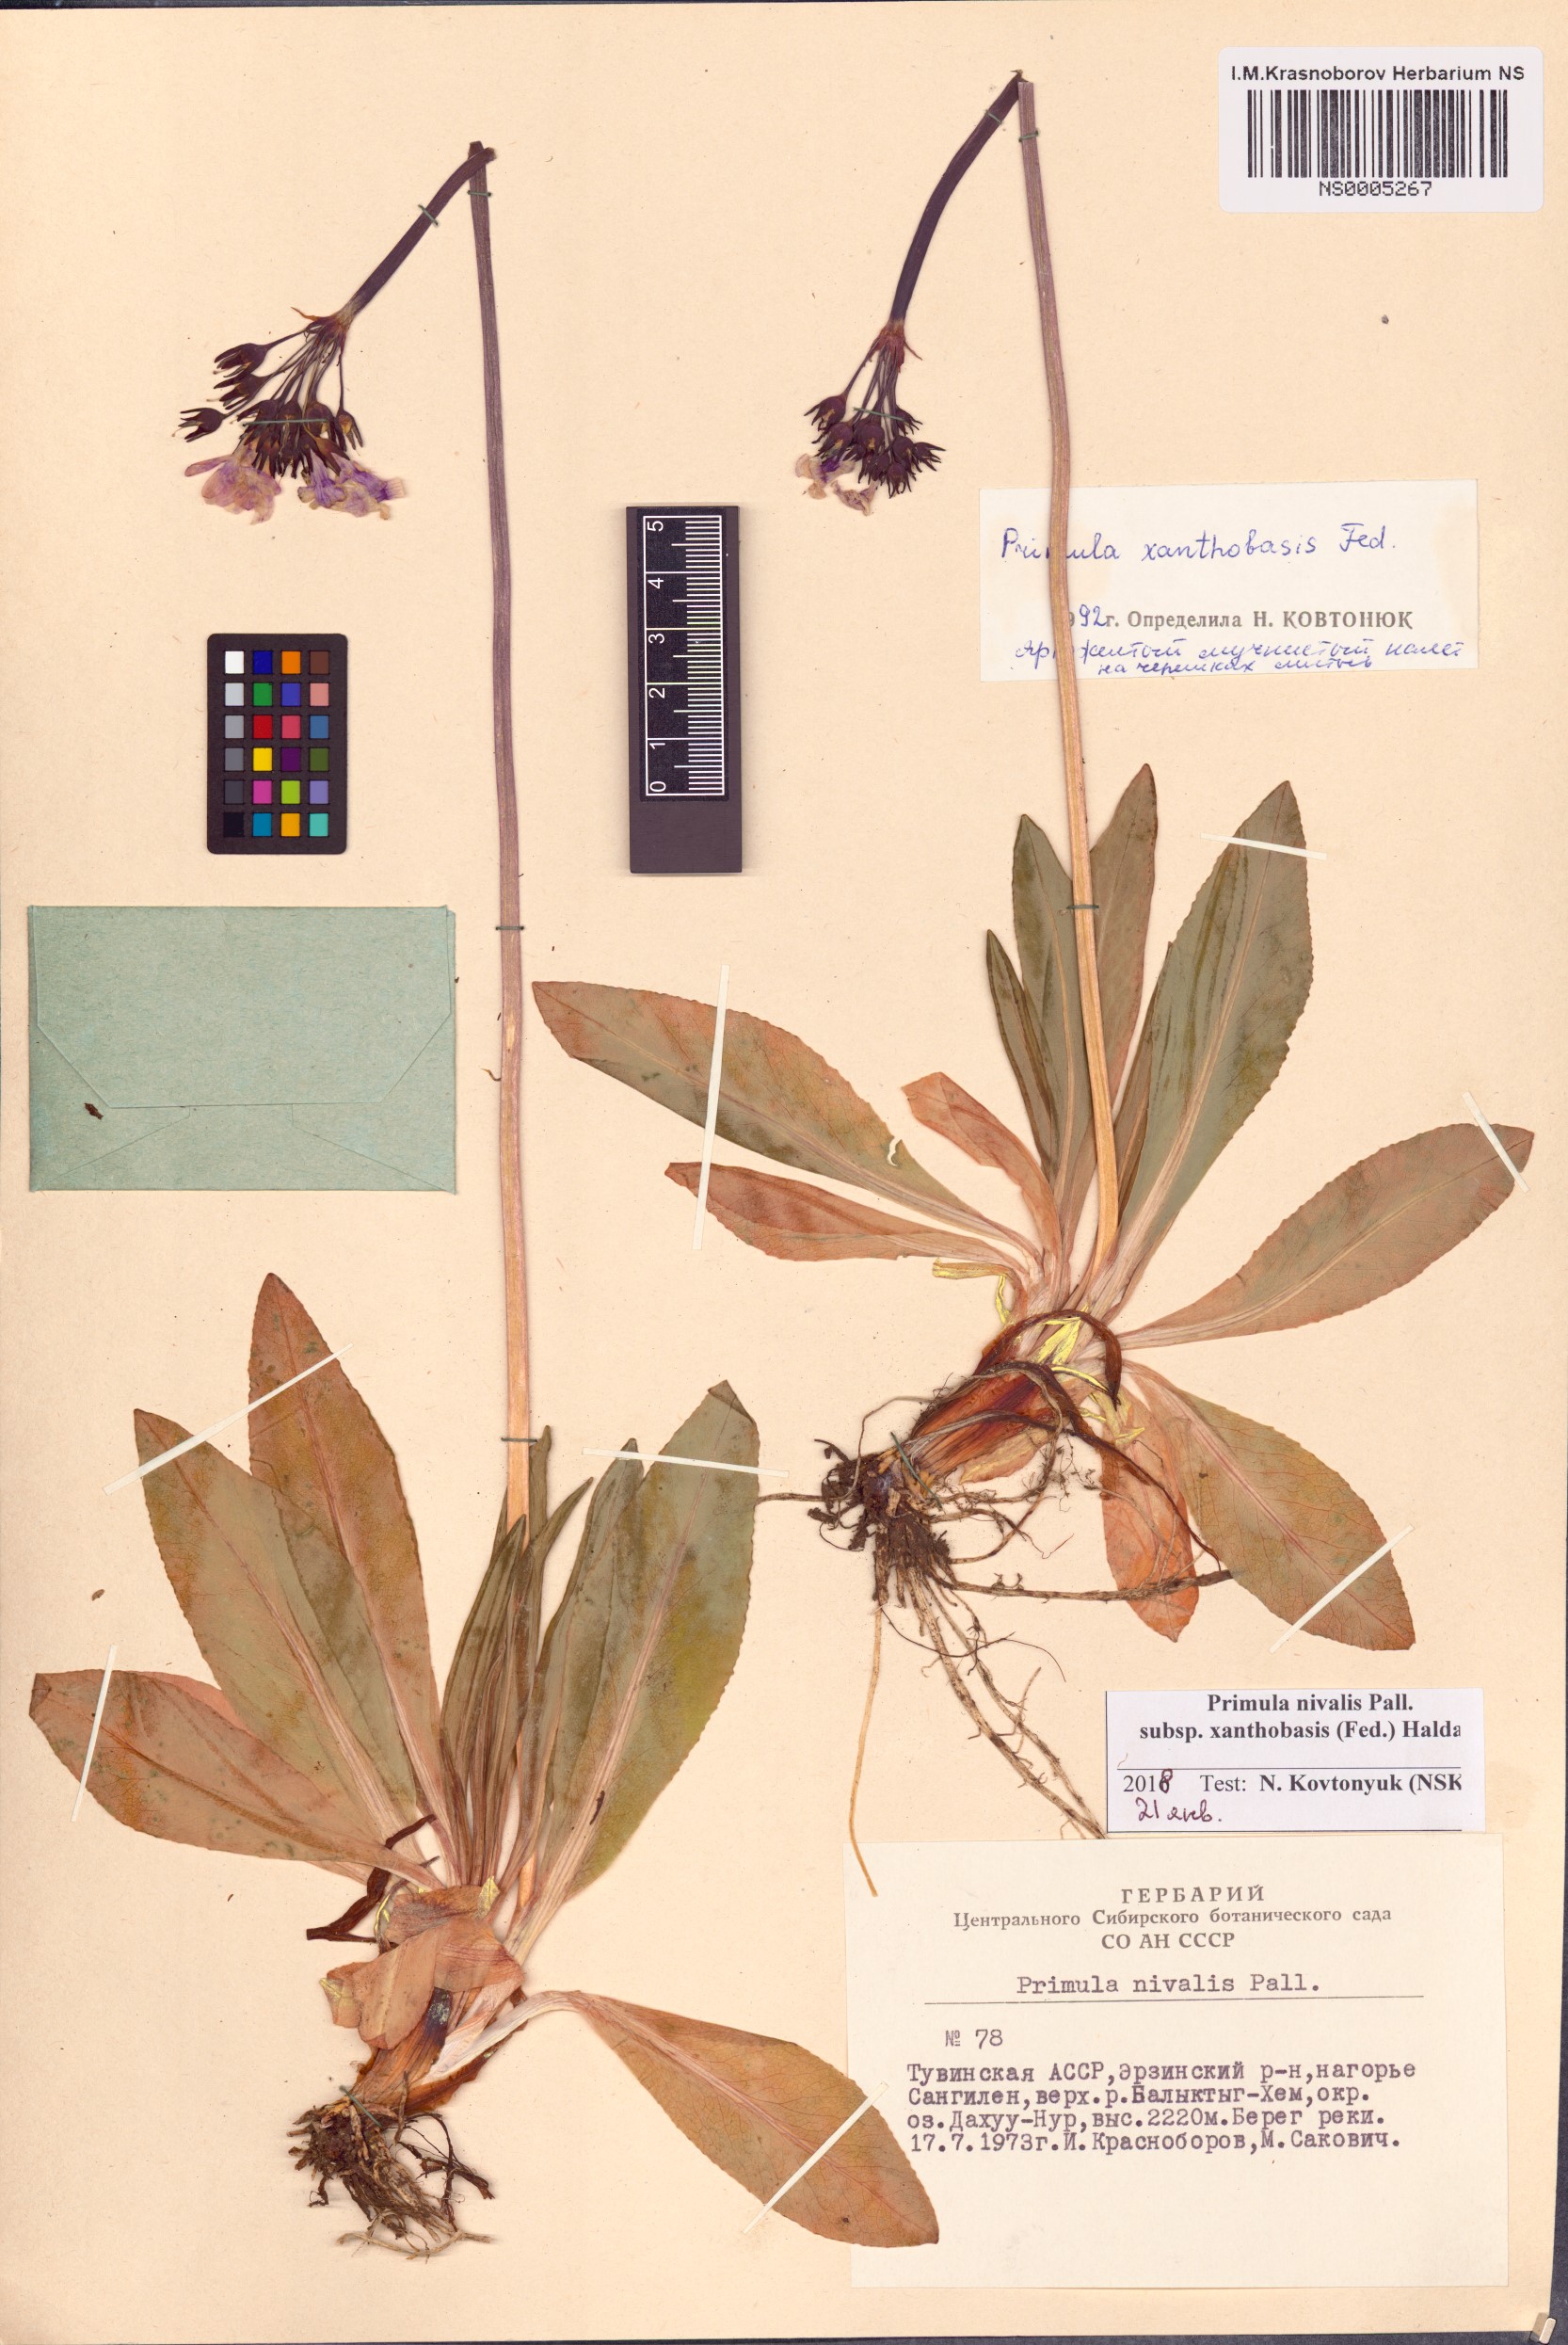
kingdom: Plantae
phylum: Tracheophyta
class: Magnoliopsida
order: Ericales
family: Primulaceae
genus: Primula
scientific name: Primula nivalis
